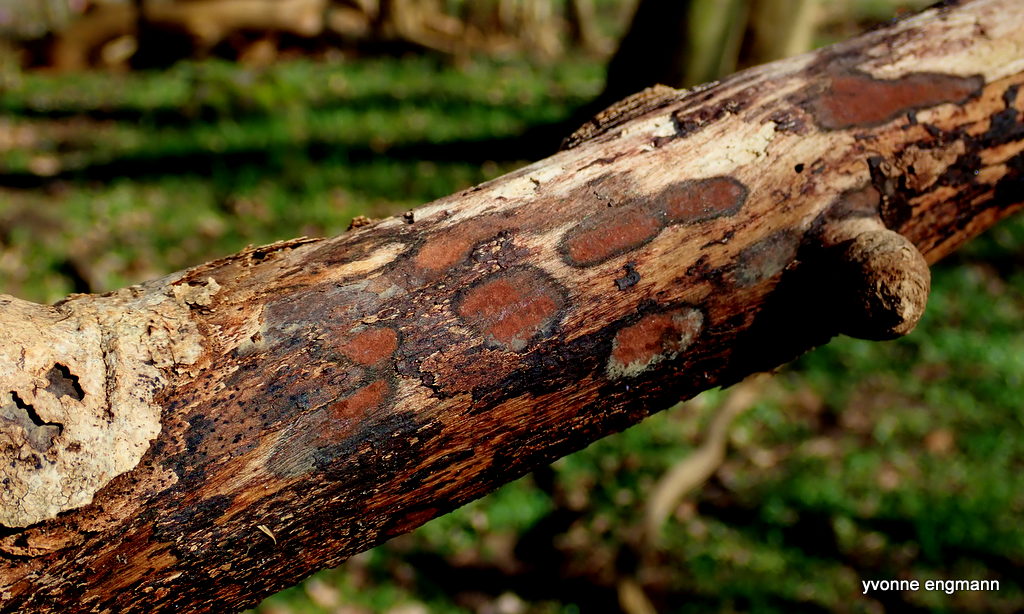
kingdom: Fungi
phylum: Ascomycota
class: Sordariomycetes
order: Xylariales
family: Hypoxylaceae
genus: Hypoxylon
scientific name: Hypoxylon petriniae
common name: nedsænket kulbær
